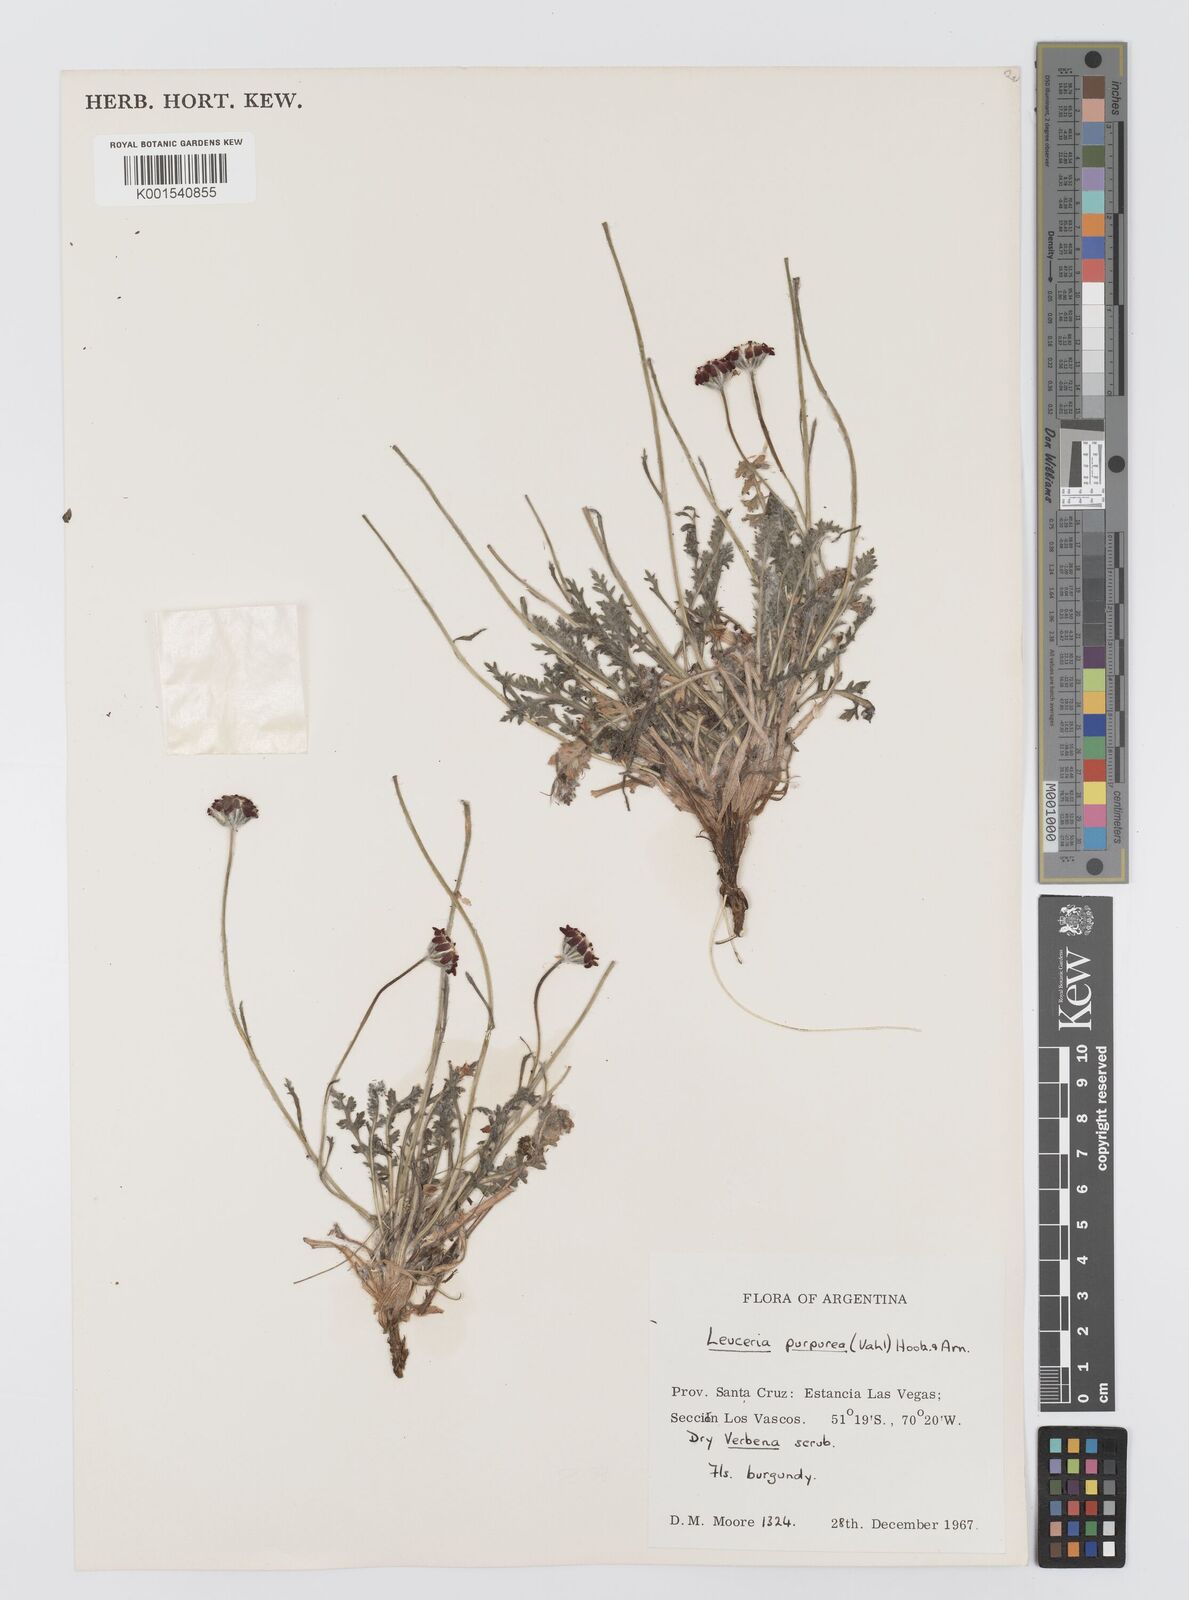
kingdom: Plantae
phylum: Tracheophyta
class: Magnoliopsida
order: Asterales
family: Asteraceae
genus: Leucheria
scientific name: Leucheria purpurea
